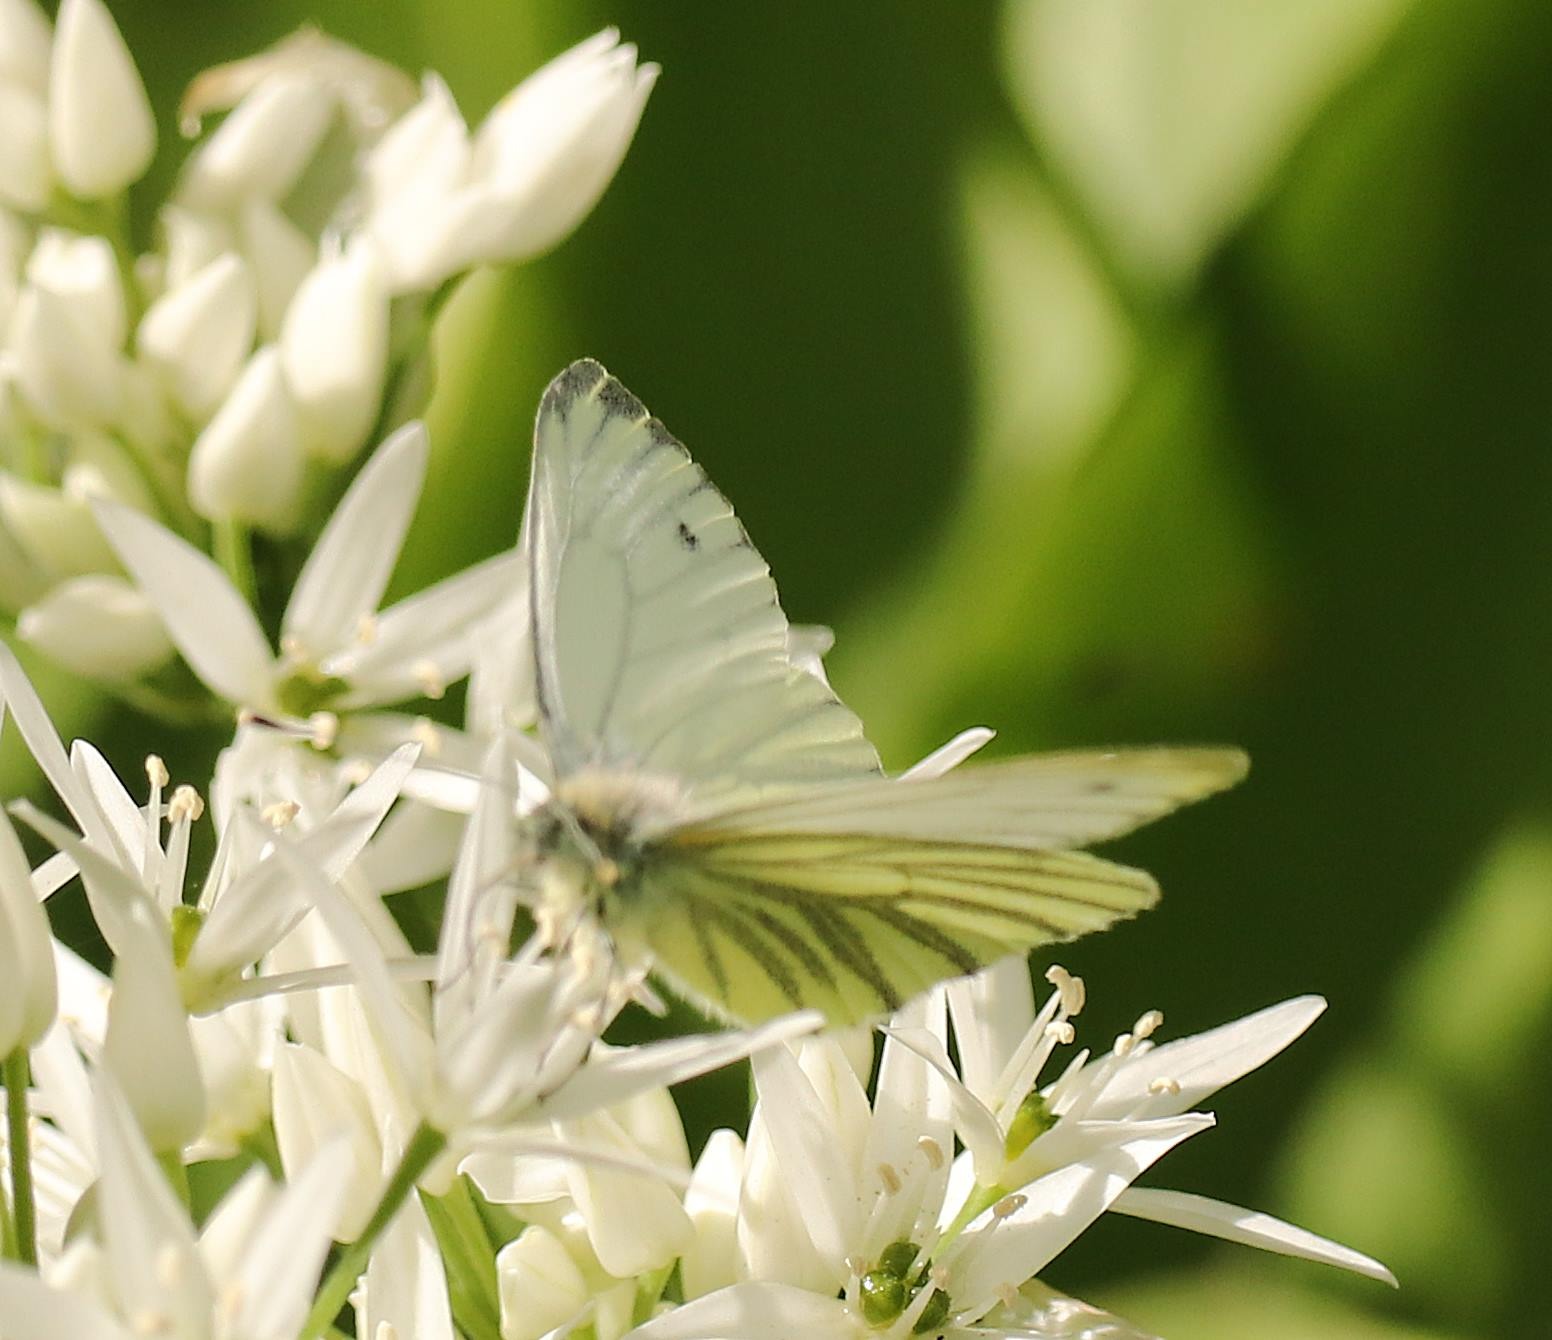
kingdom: Animalia
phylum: Arthropoda
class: Insecta
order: Lepidoptera
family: Pieridae
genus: Pieris
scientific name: Pieris napi
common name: Grønåret kålsommerfugl
